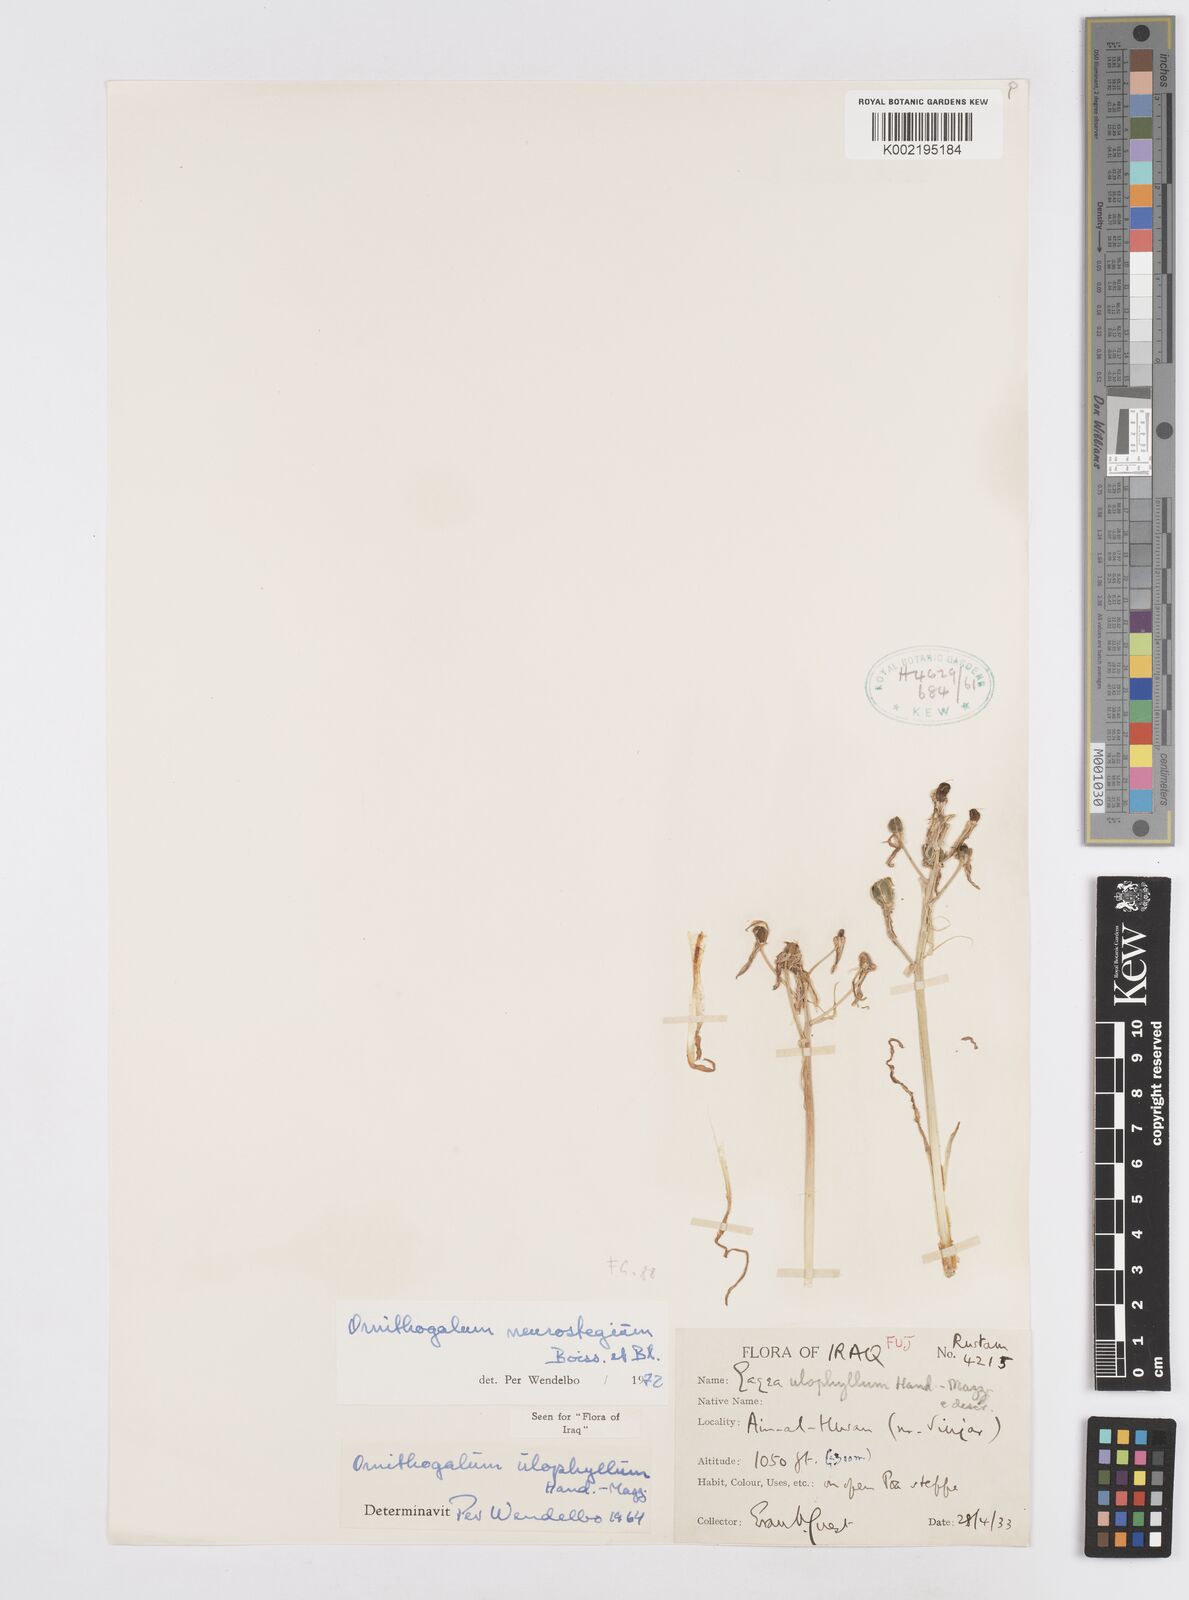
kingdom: Plantae
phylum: Tracheophyta
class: Liliopsida
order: Asparagales
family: Asparagaceae
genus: Ornithogalum
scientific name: Ornithogalum neurostegium
